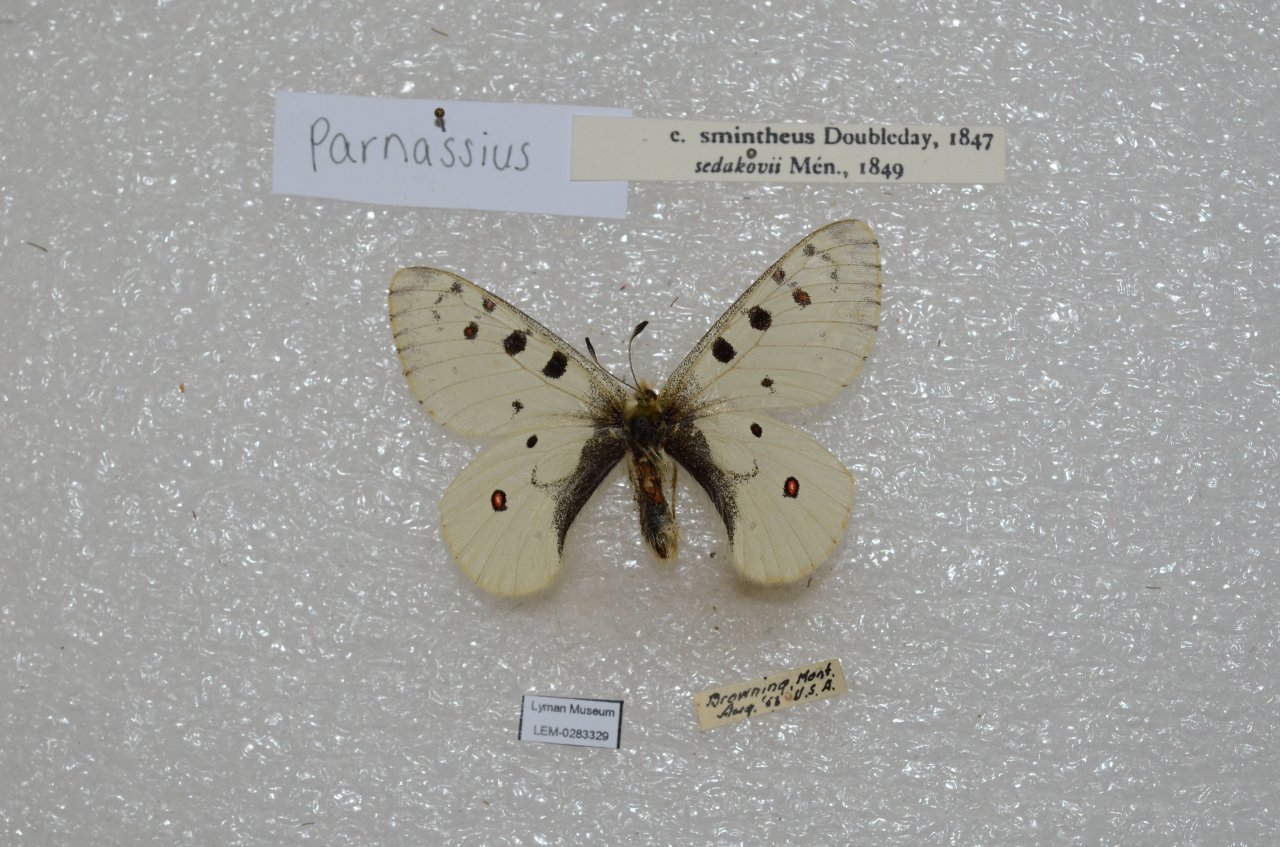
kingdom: Animalia
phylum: Arthropoda
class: Insecta
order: Lepidoptera
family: Papilionidae
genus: Parnassius
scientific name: Parnassius smintheus
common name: Rocky Mountain Parnassian
